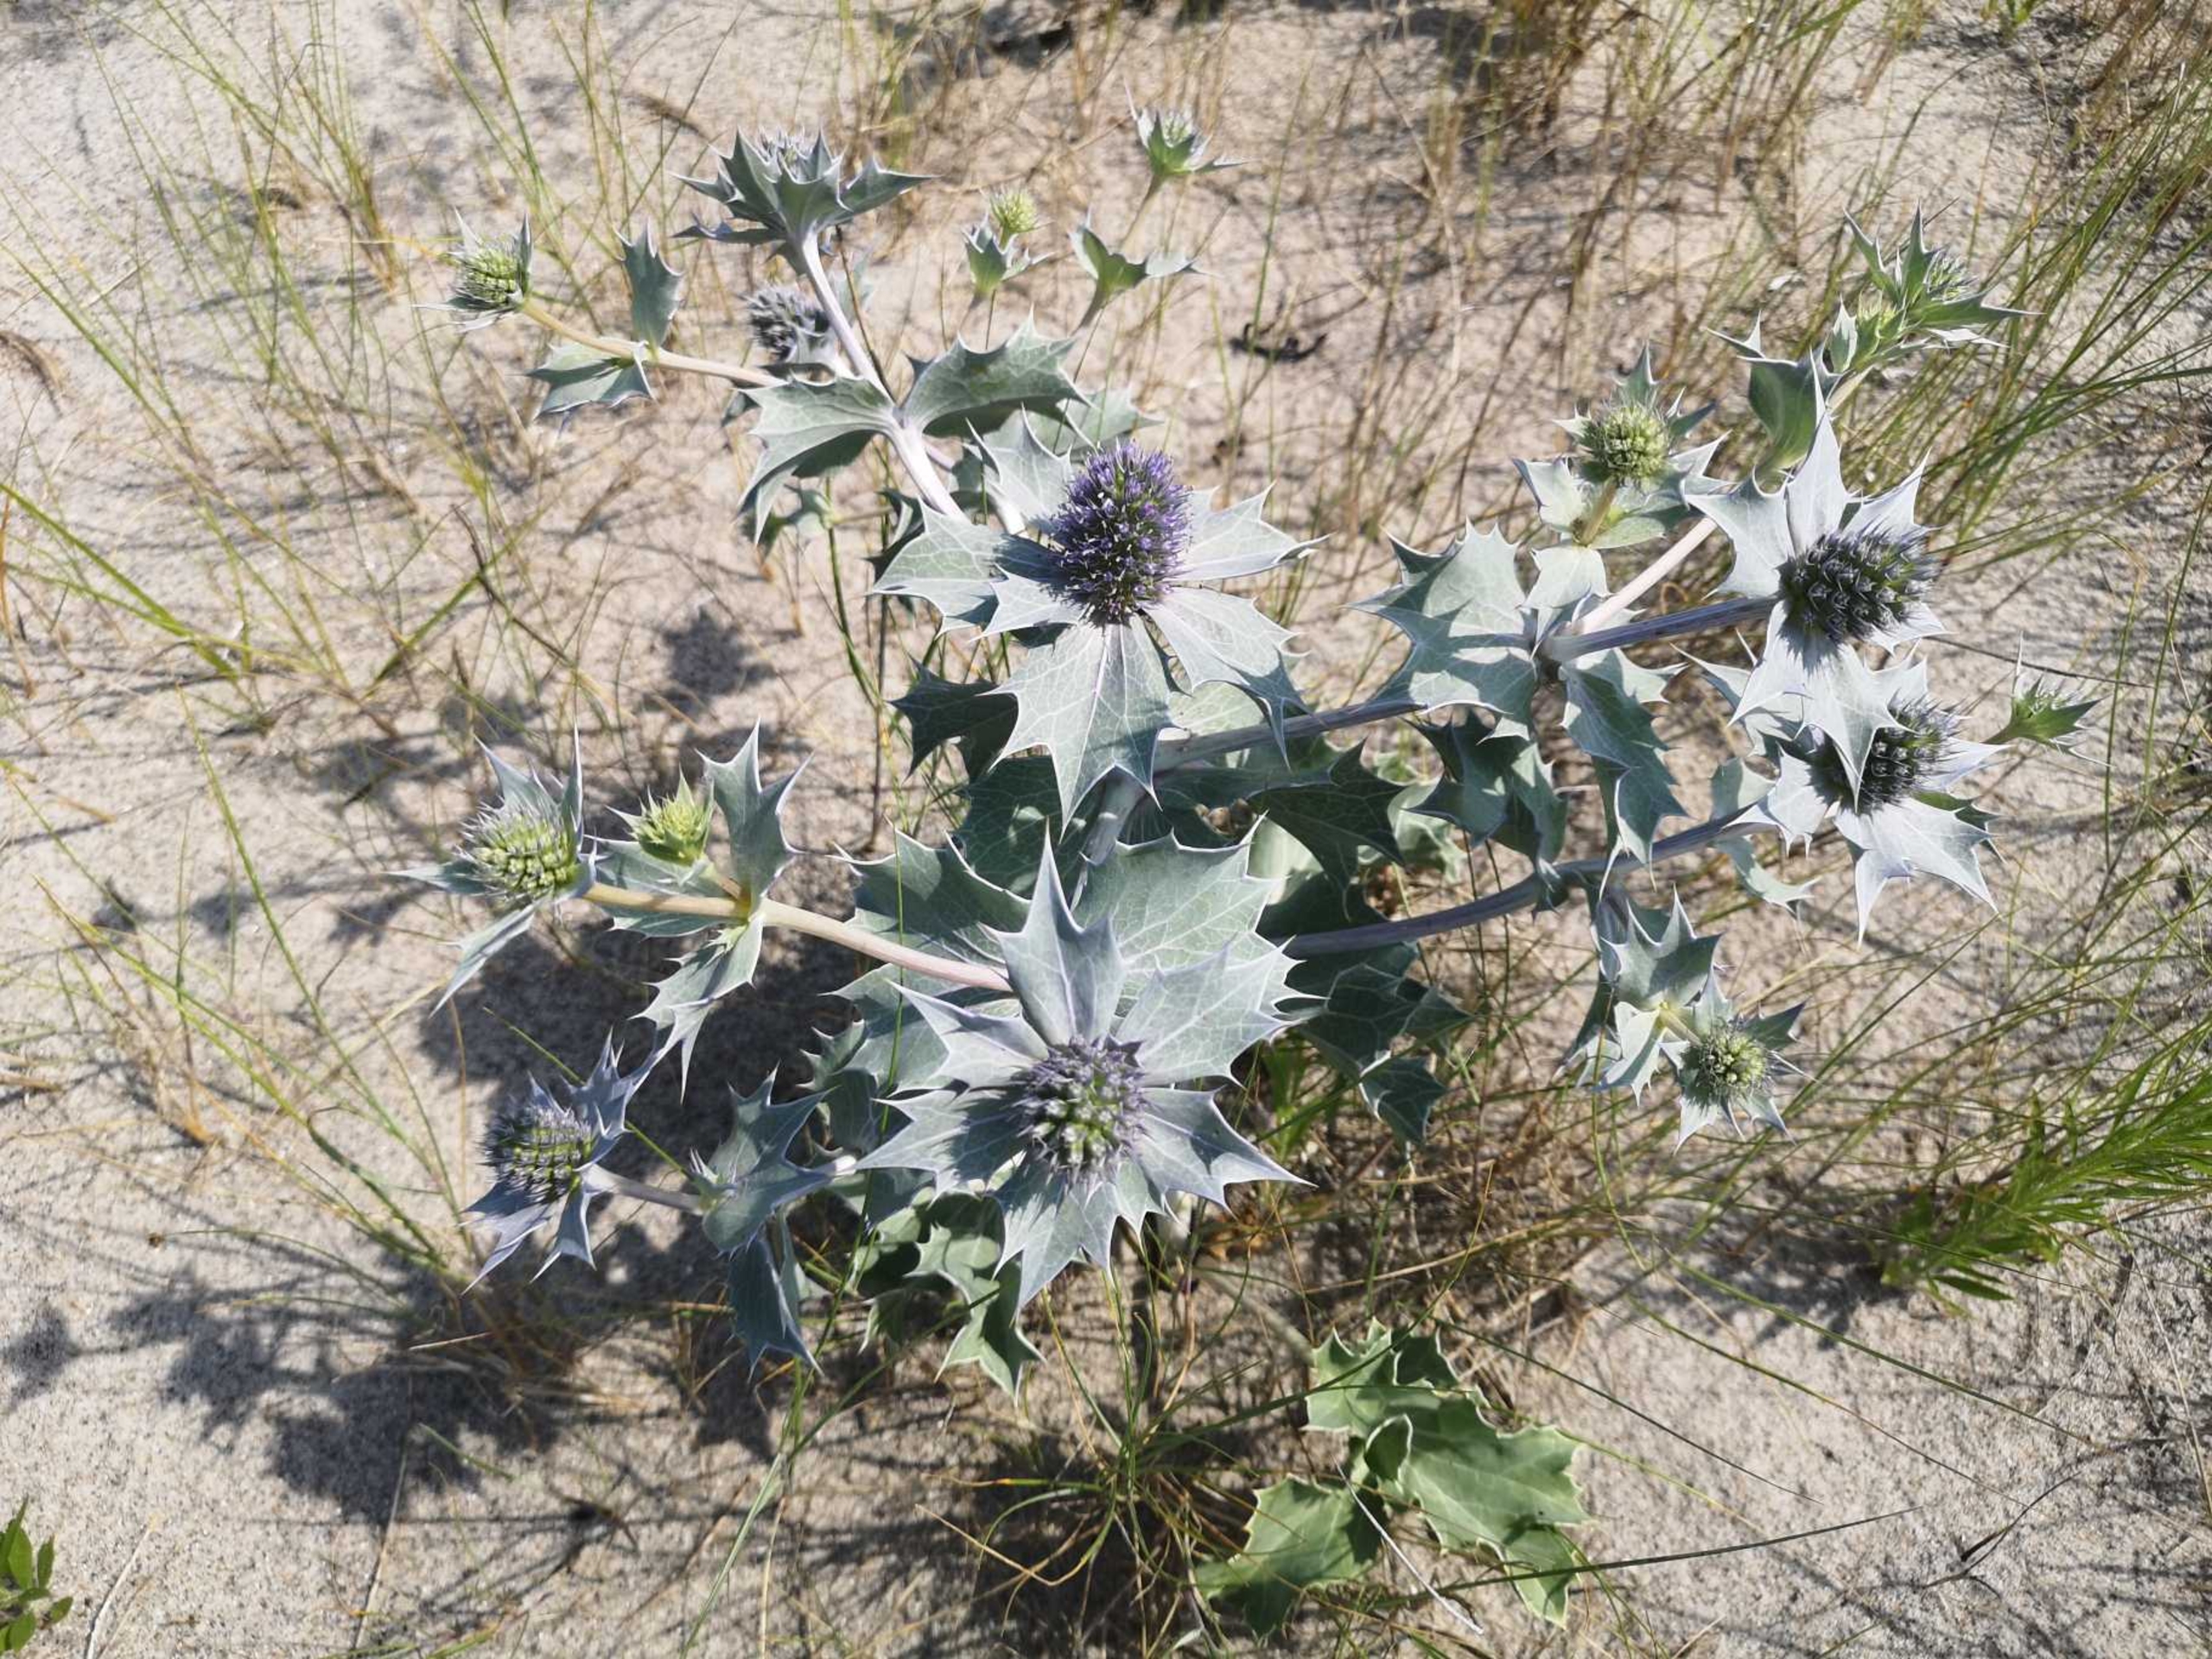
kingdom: Plantae
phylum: Tracheophyta
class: Magnoliopsida
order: Apiales
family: Apiaceae
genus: Eryngium
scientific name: Eryngium maritimum
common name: Strand-mandstro
